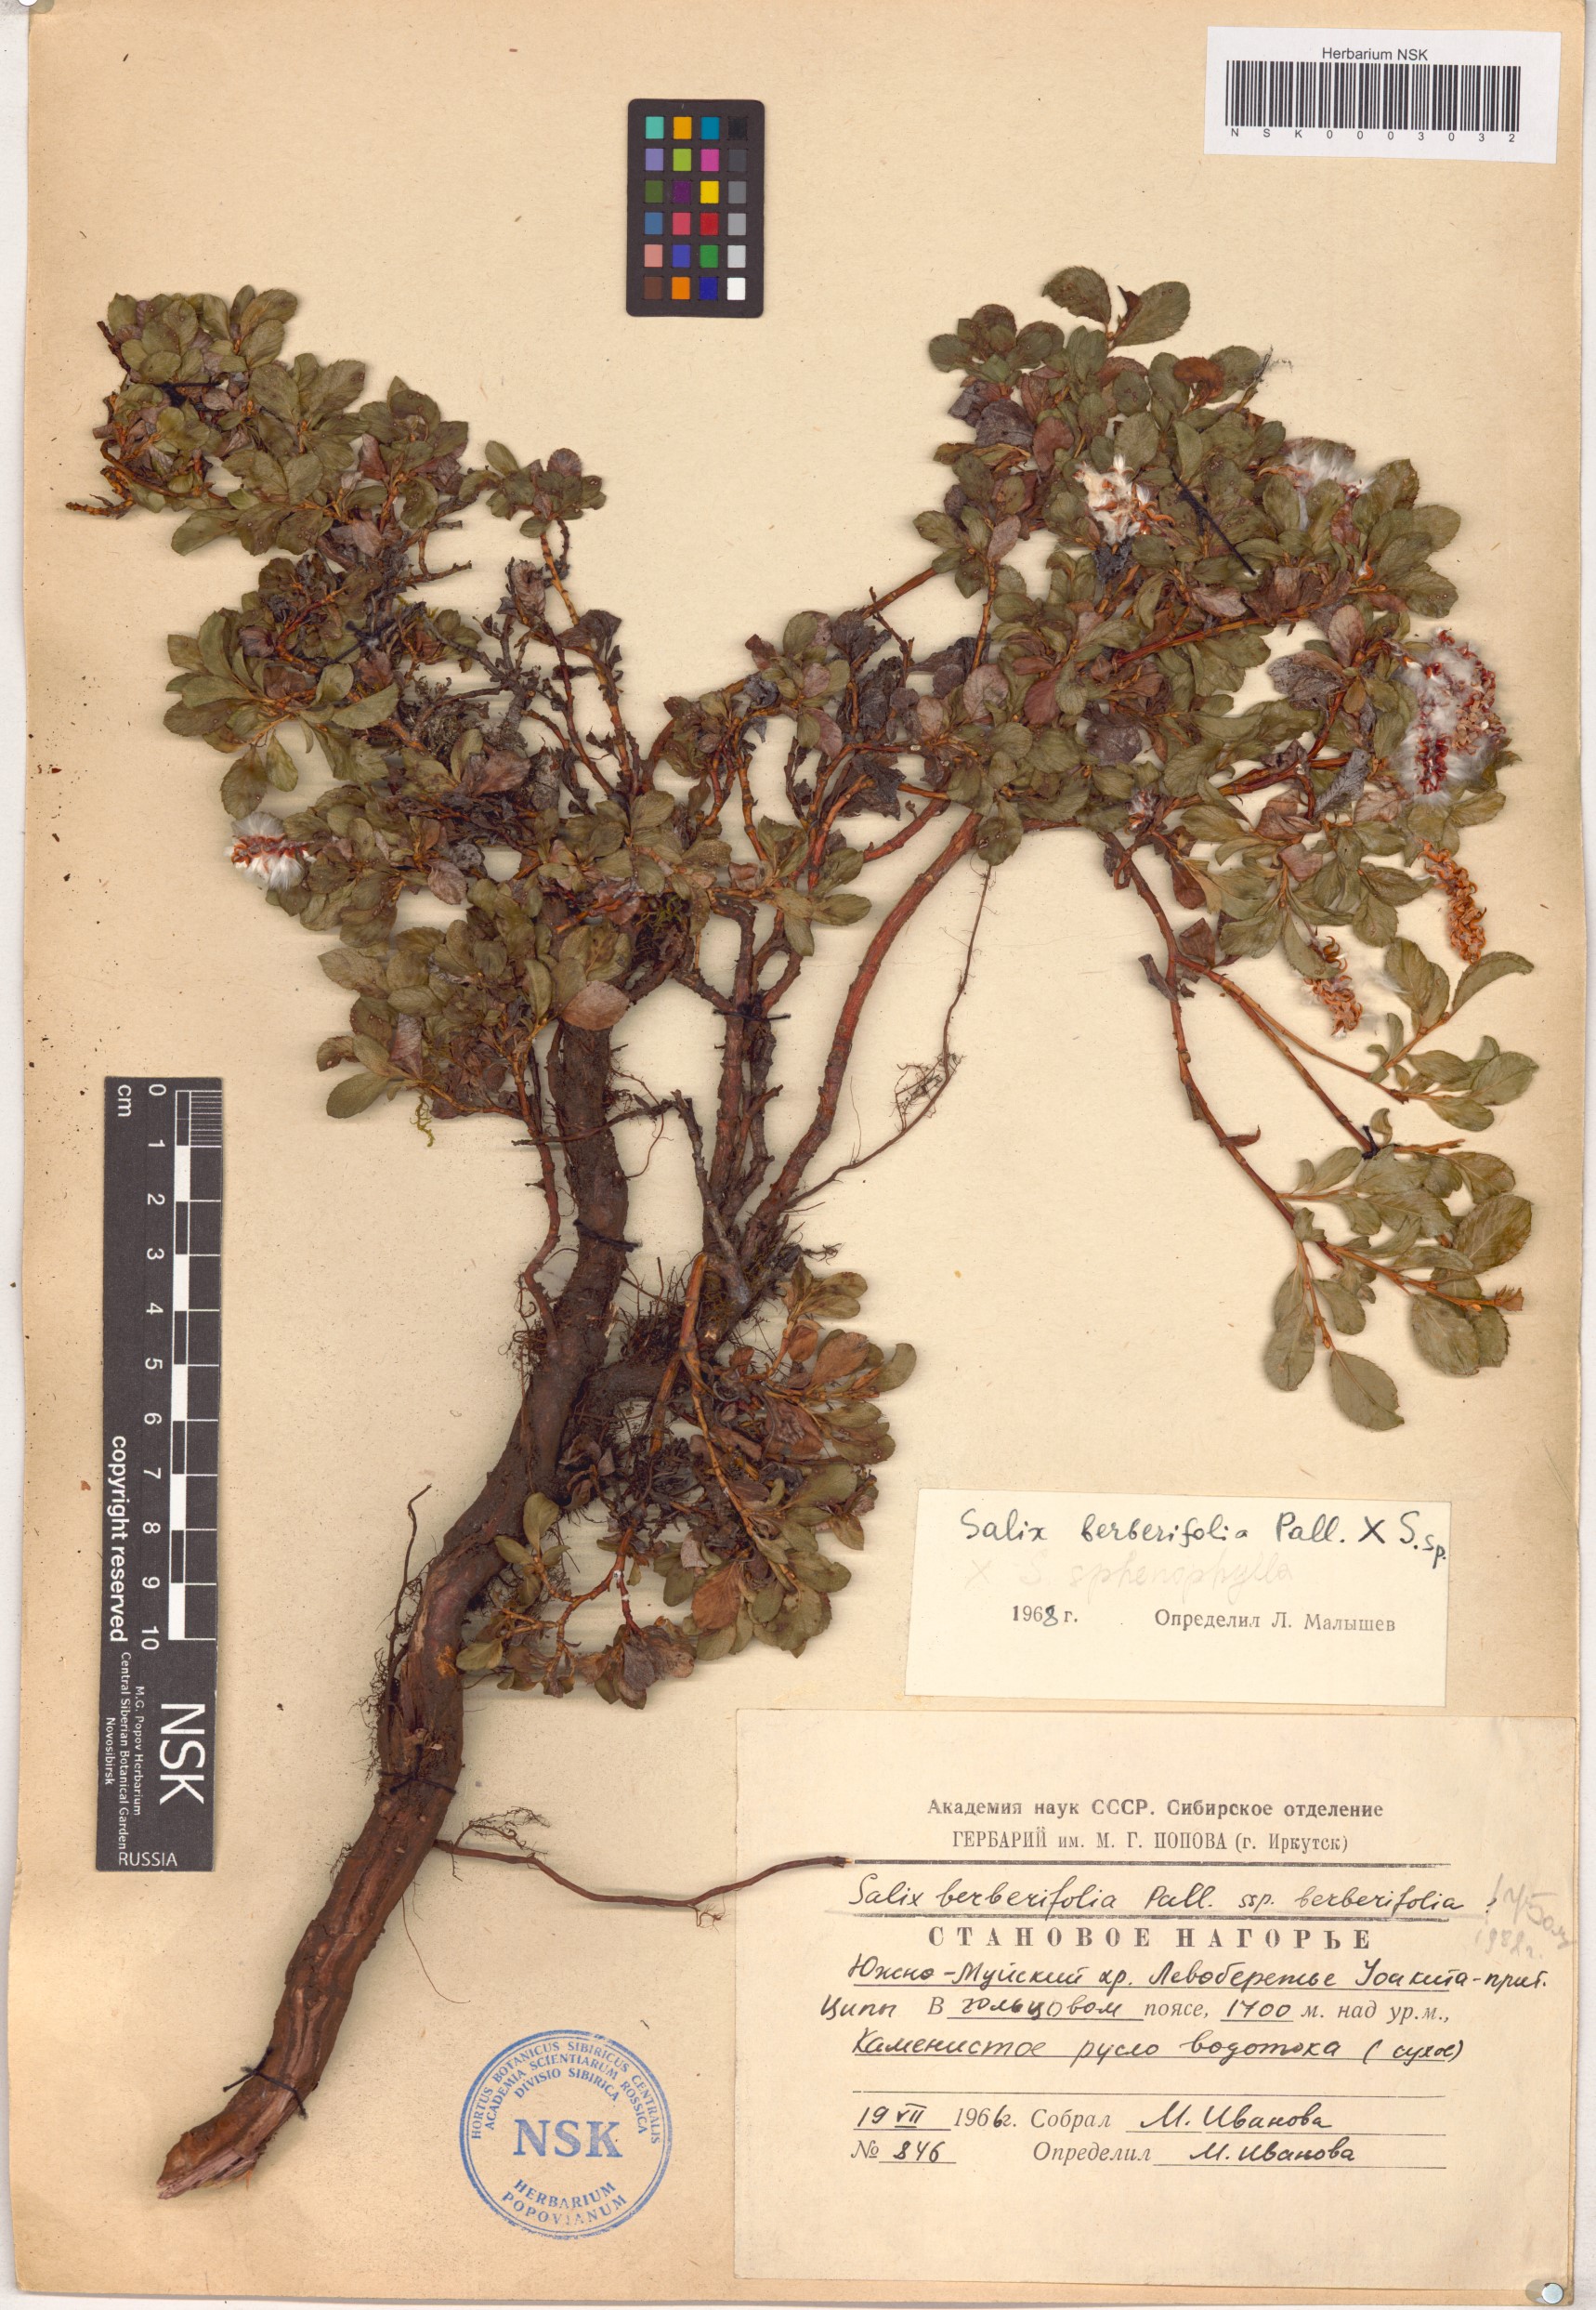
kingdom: Plantae
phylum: Tracheophyta
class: Magnoliopsida
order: Malpighiales
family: Salicaceae
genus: Salix
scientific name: Salix berberifolia
